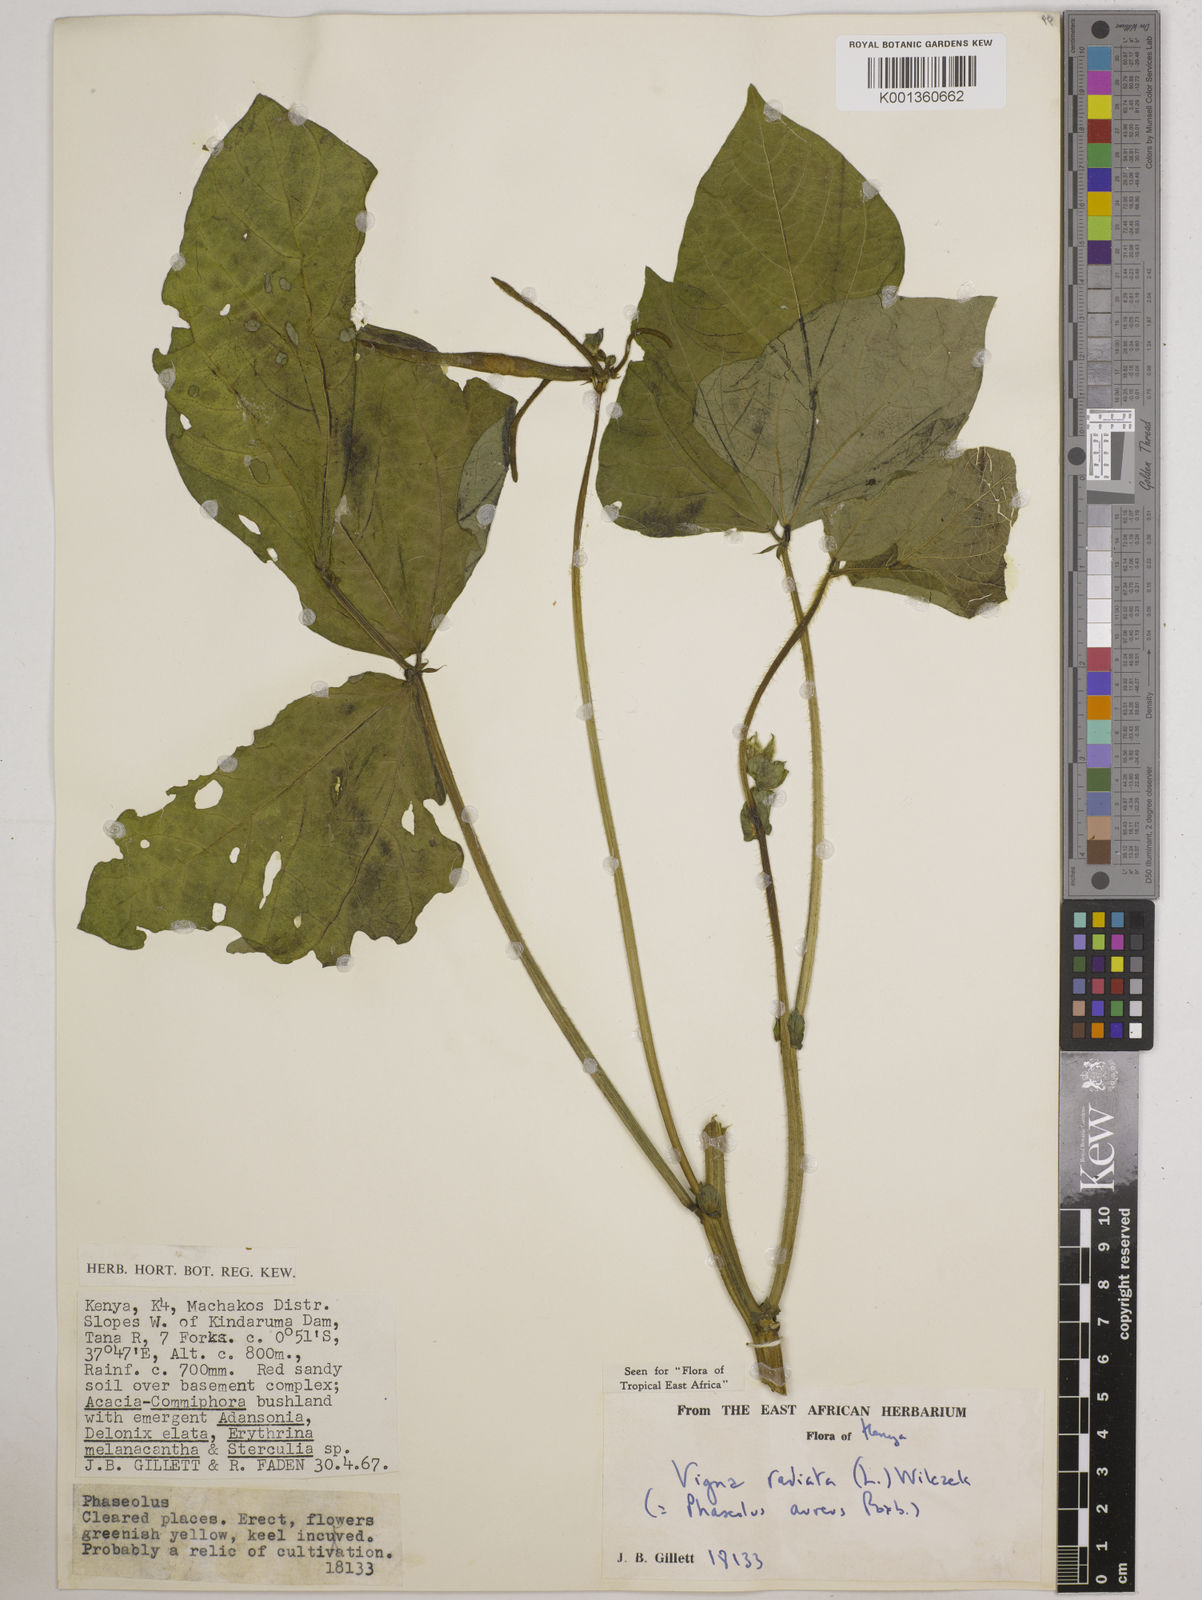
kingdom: Plantae
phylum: Tracheophyta
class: Magnoliopsida
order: Fabales
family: Fabaceae
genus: Vigna
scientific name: Vigna radiata
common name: Mung-bean
